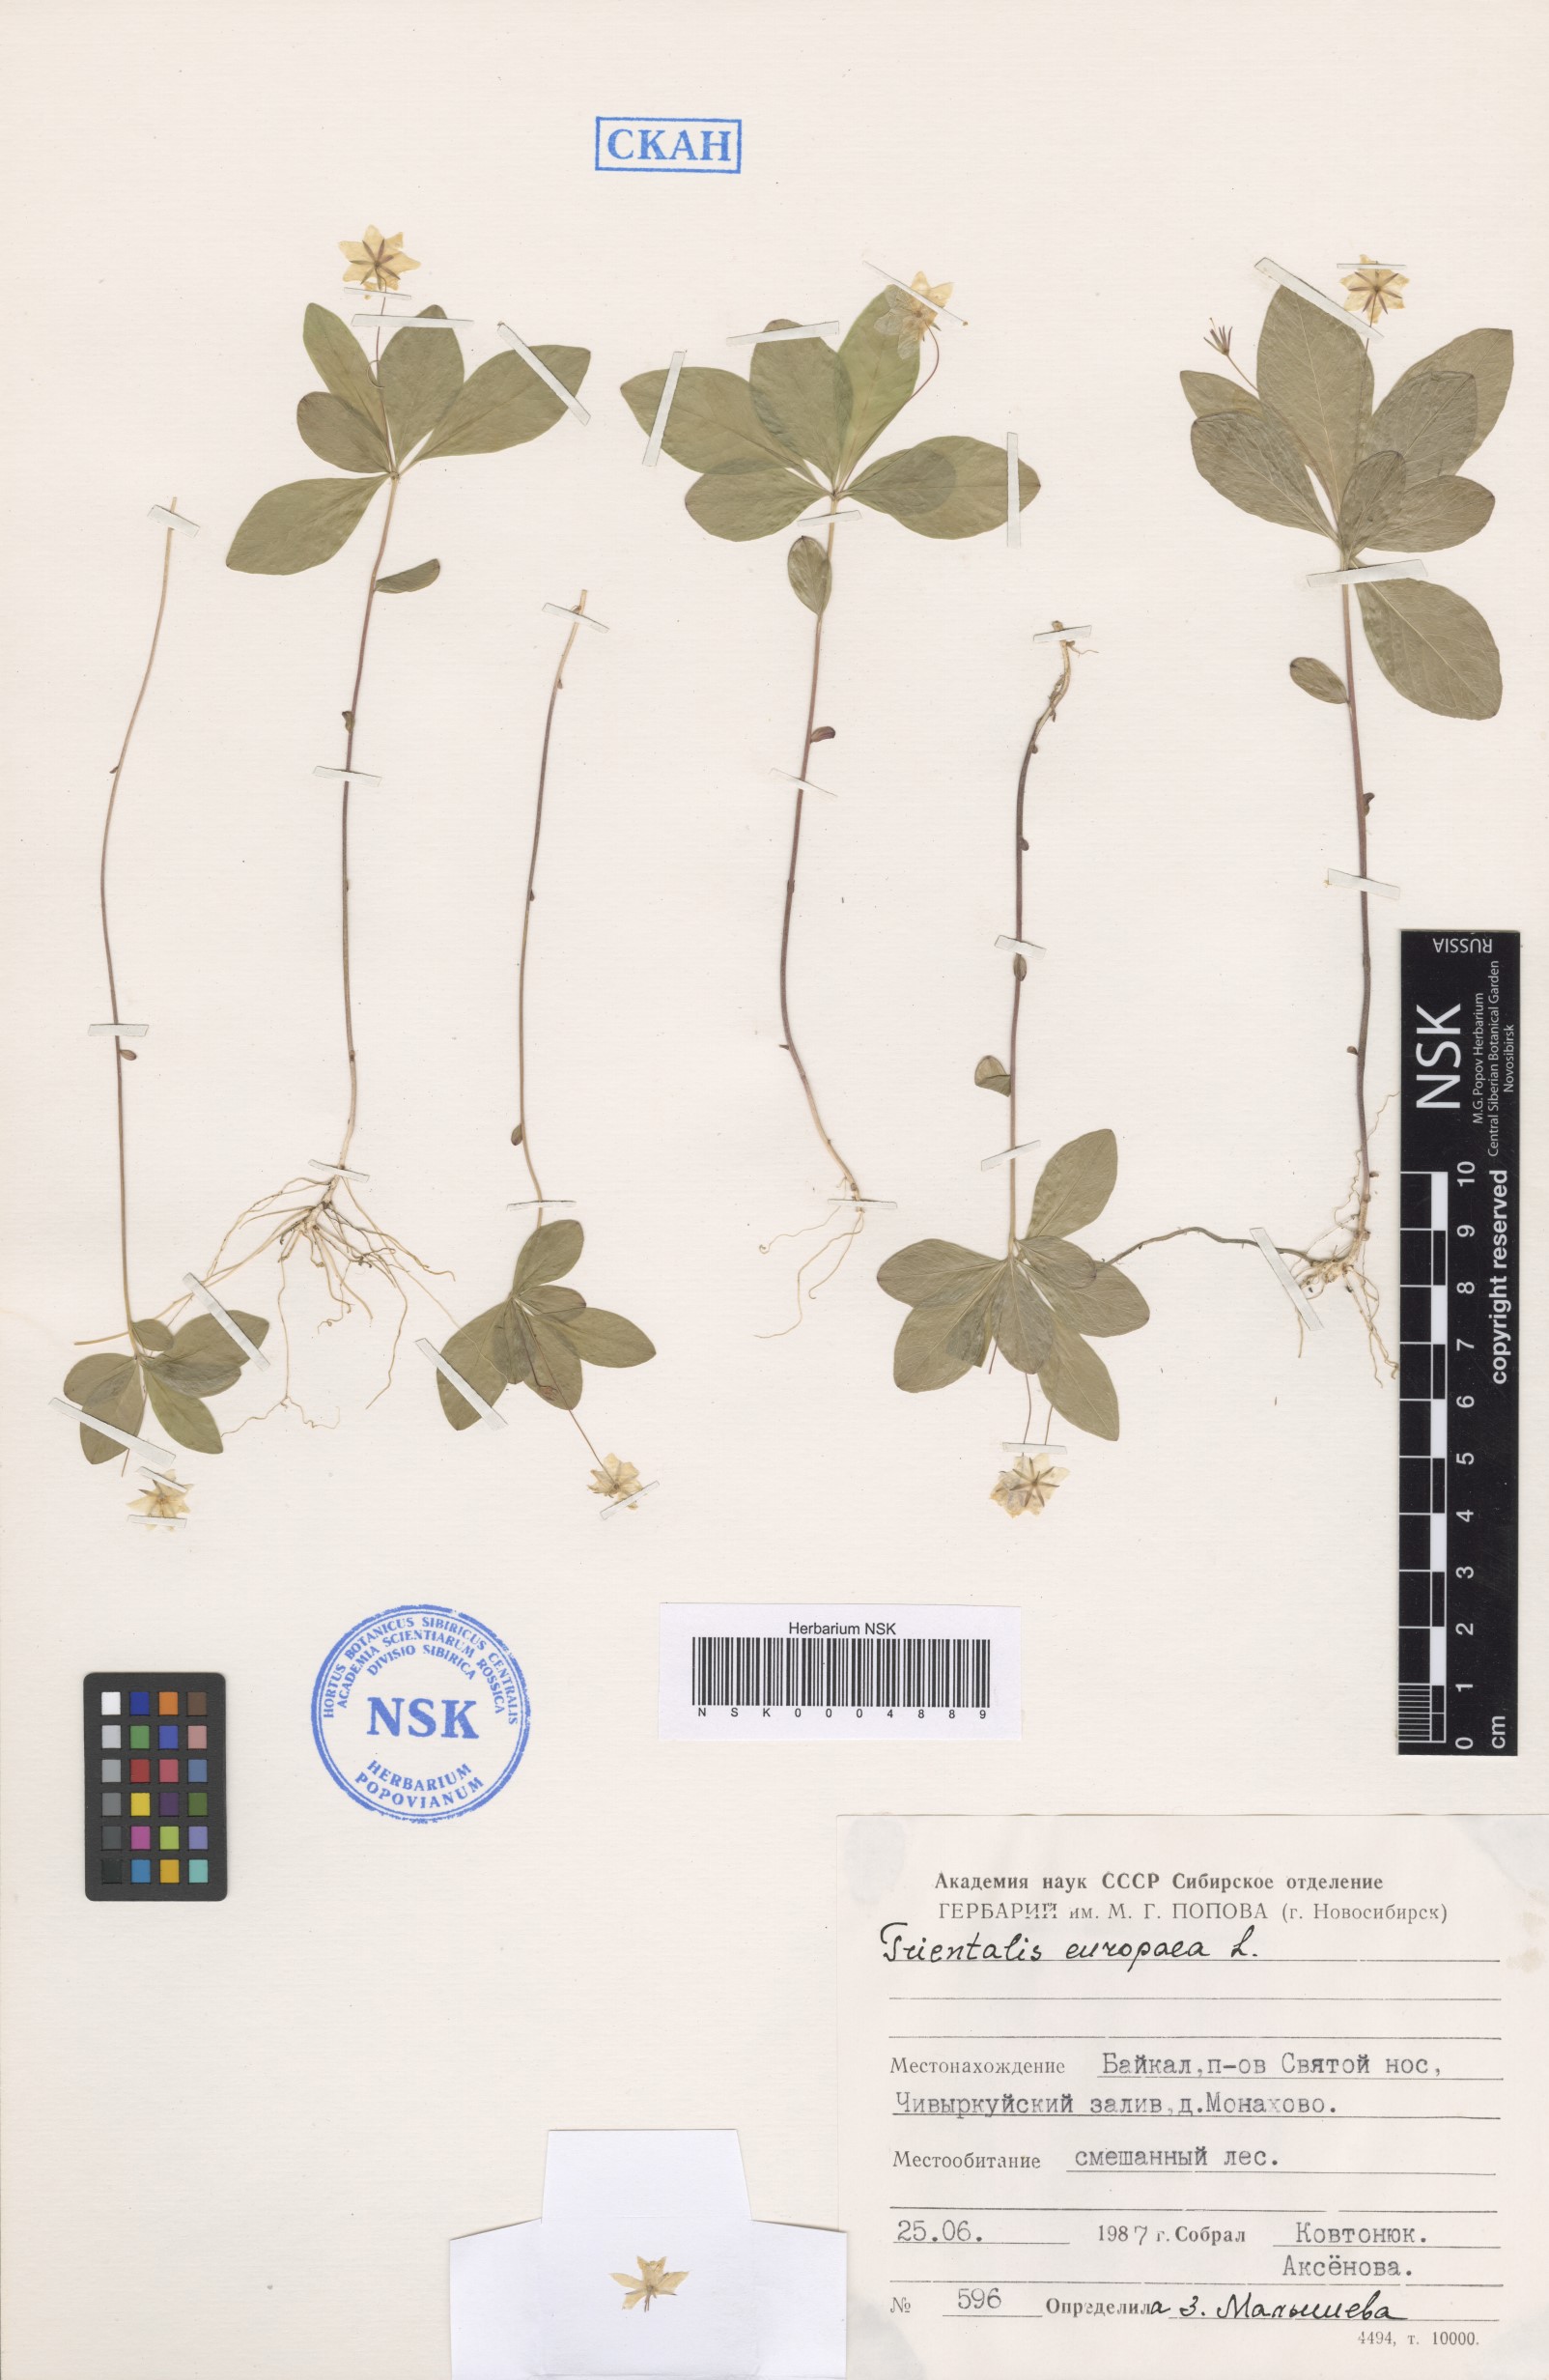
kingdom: Plantae
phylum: Tracheophyta
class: Magnoliopsida
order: Ericales
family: Primulaceae
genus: Lysimachia
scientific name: Lysimachia europaea
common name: Arctic starflower
